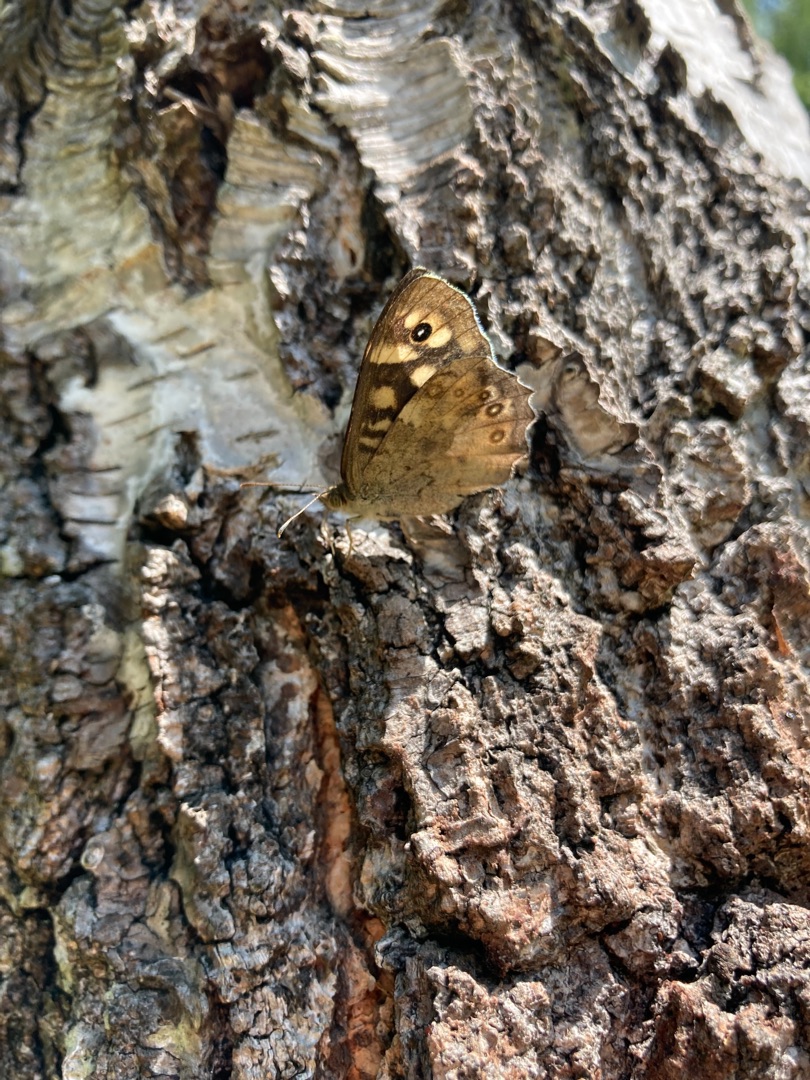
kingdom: Animalia
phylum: Arthropoda
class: Insecta
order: Lepidoptera
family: Nymphalidae
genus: Pararge
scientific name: Pararge aegeria
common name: Skovrandøje
